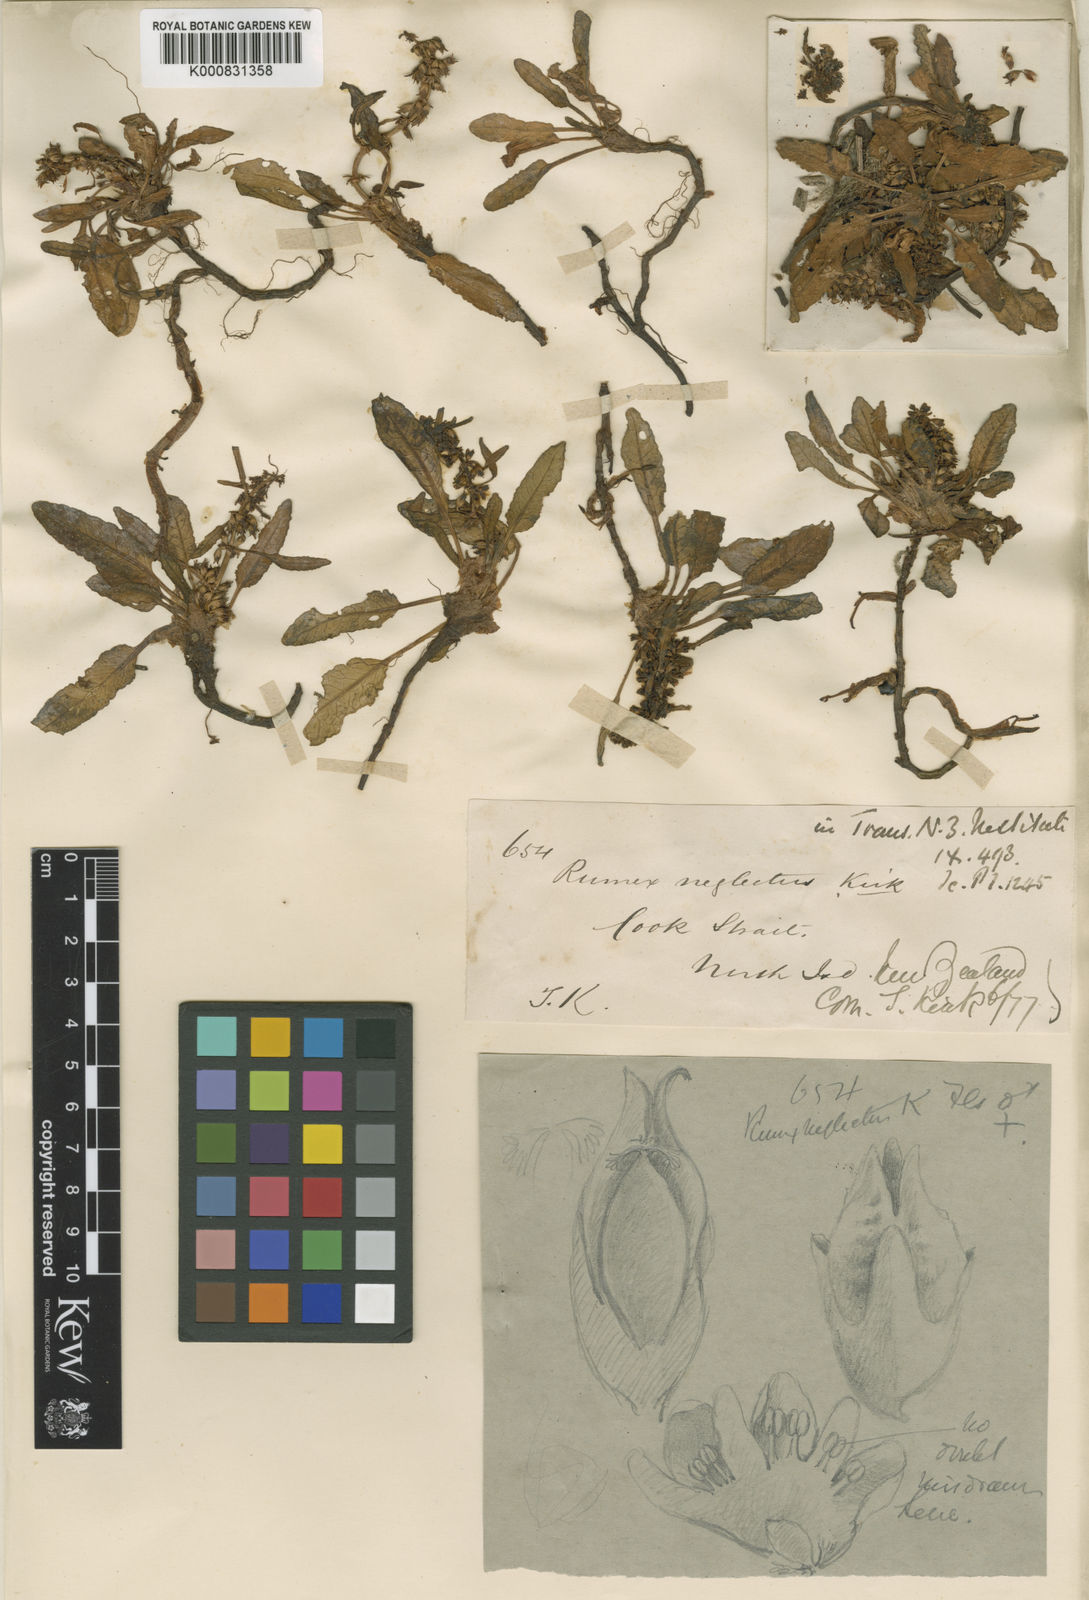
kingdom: Plantae
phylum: Tracheophyta
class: Magnoliopsida
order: Caryophyllales
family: Polygonaceae
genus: Rumex
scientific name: Rumex neglectus
